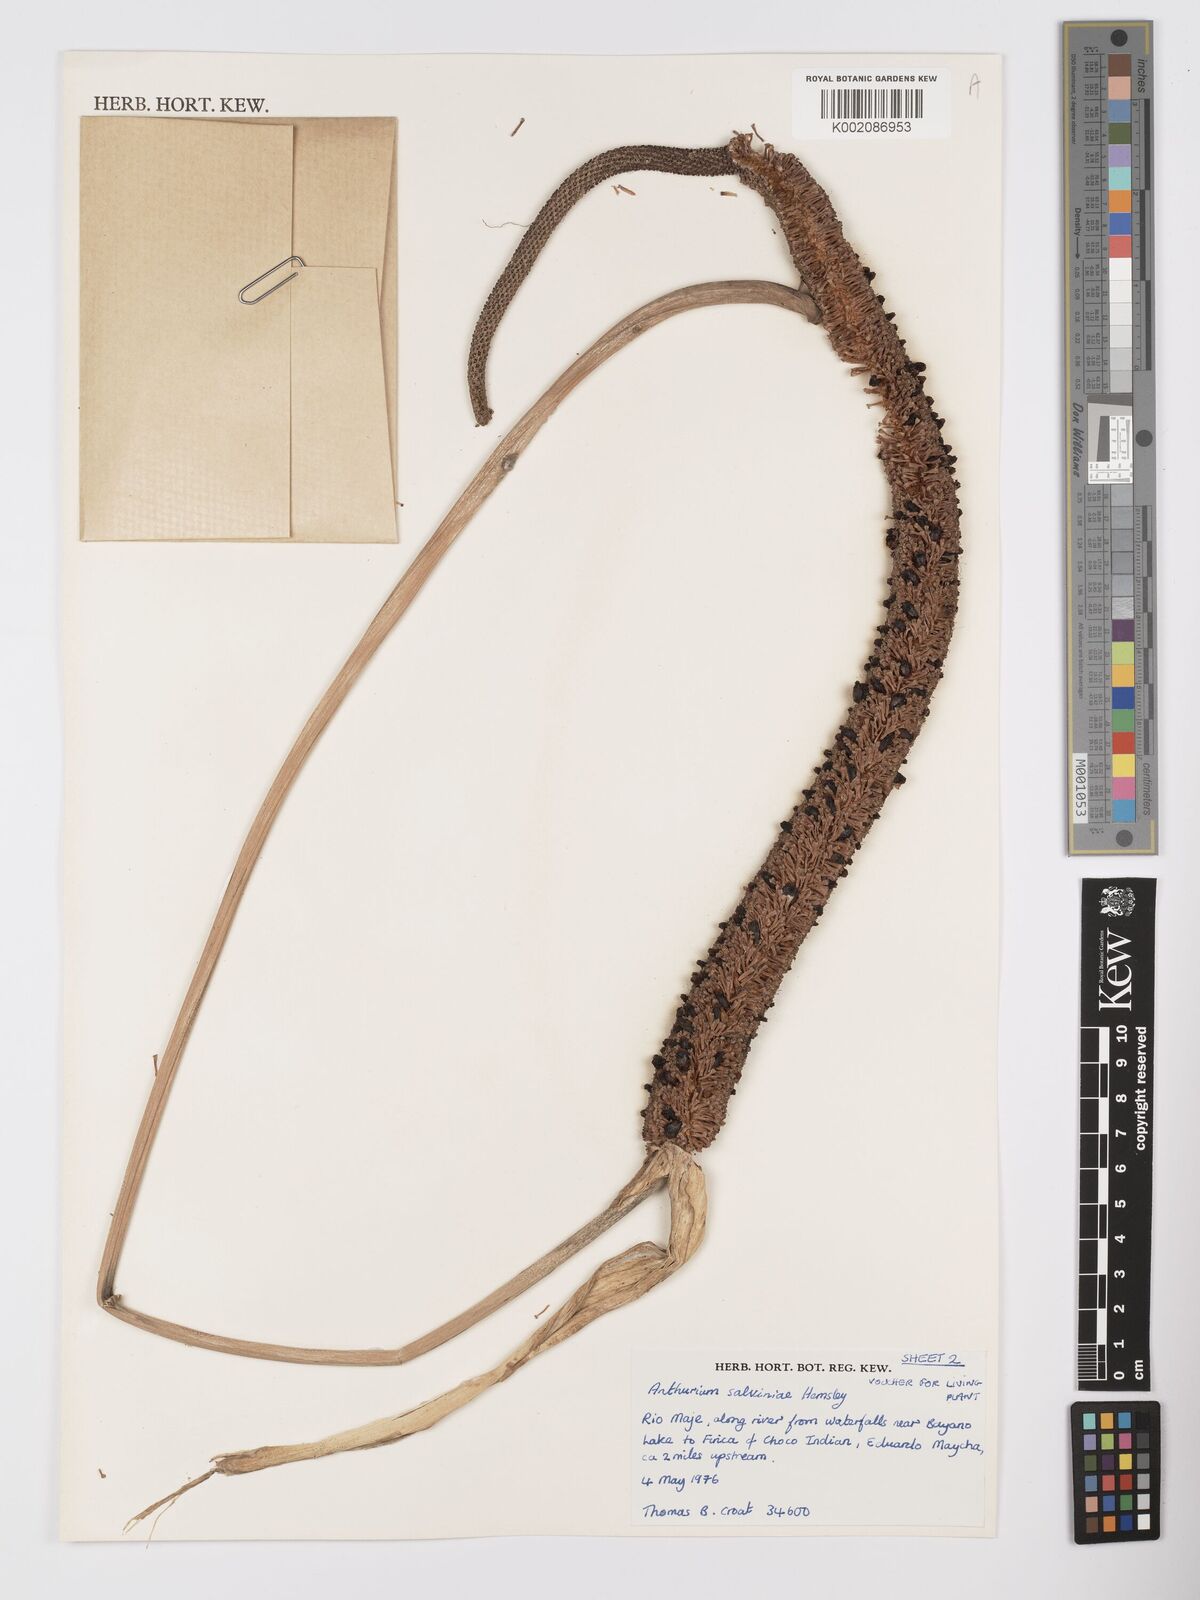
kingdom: Plantae
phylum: Tracheophyta
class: Liliopsida
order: Alismatales
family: Araceae
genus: Anthurium
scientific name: Anthurium salvinii
